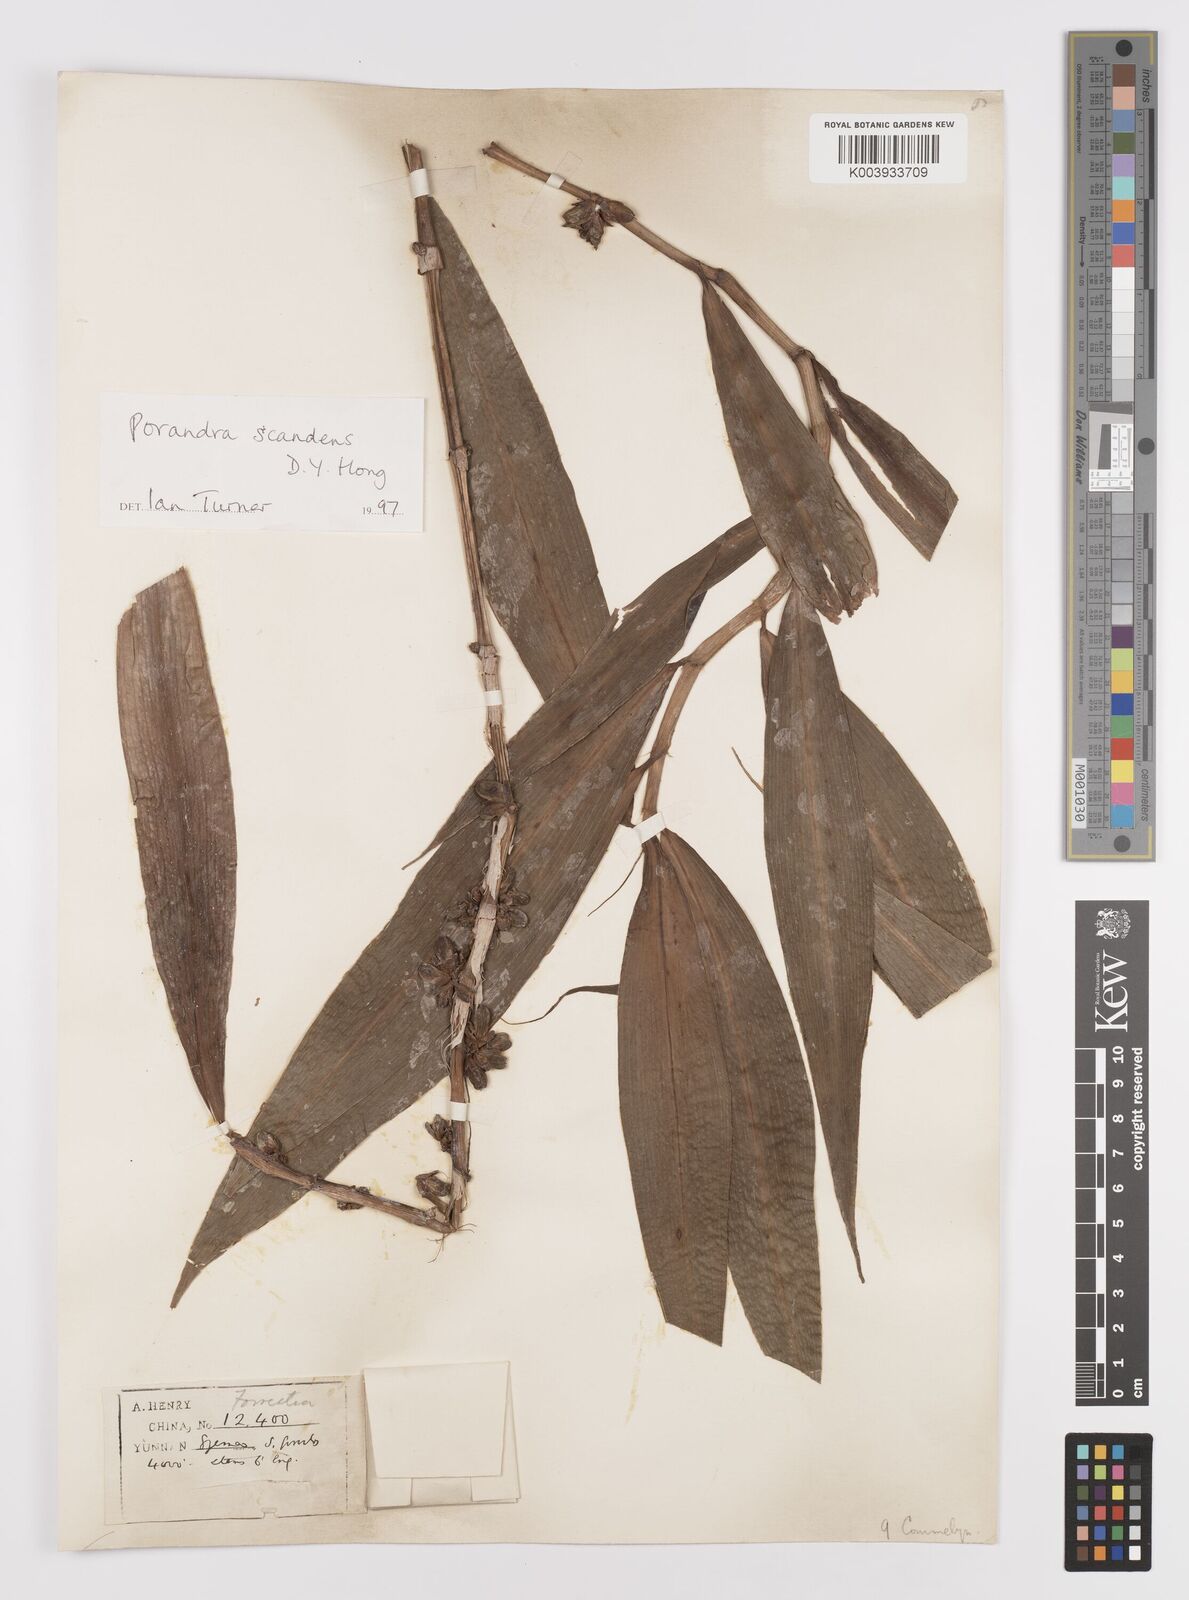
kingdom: Plantae
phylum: Tracheophyta
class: Liliopsida
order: Commelinales
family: Commelinaceae
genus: Porandra
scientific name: Porandra scandens
